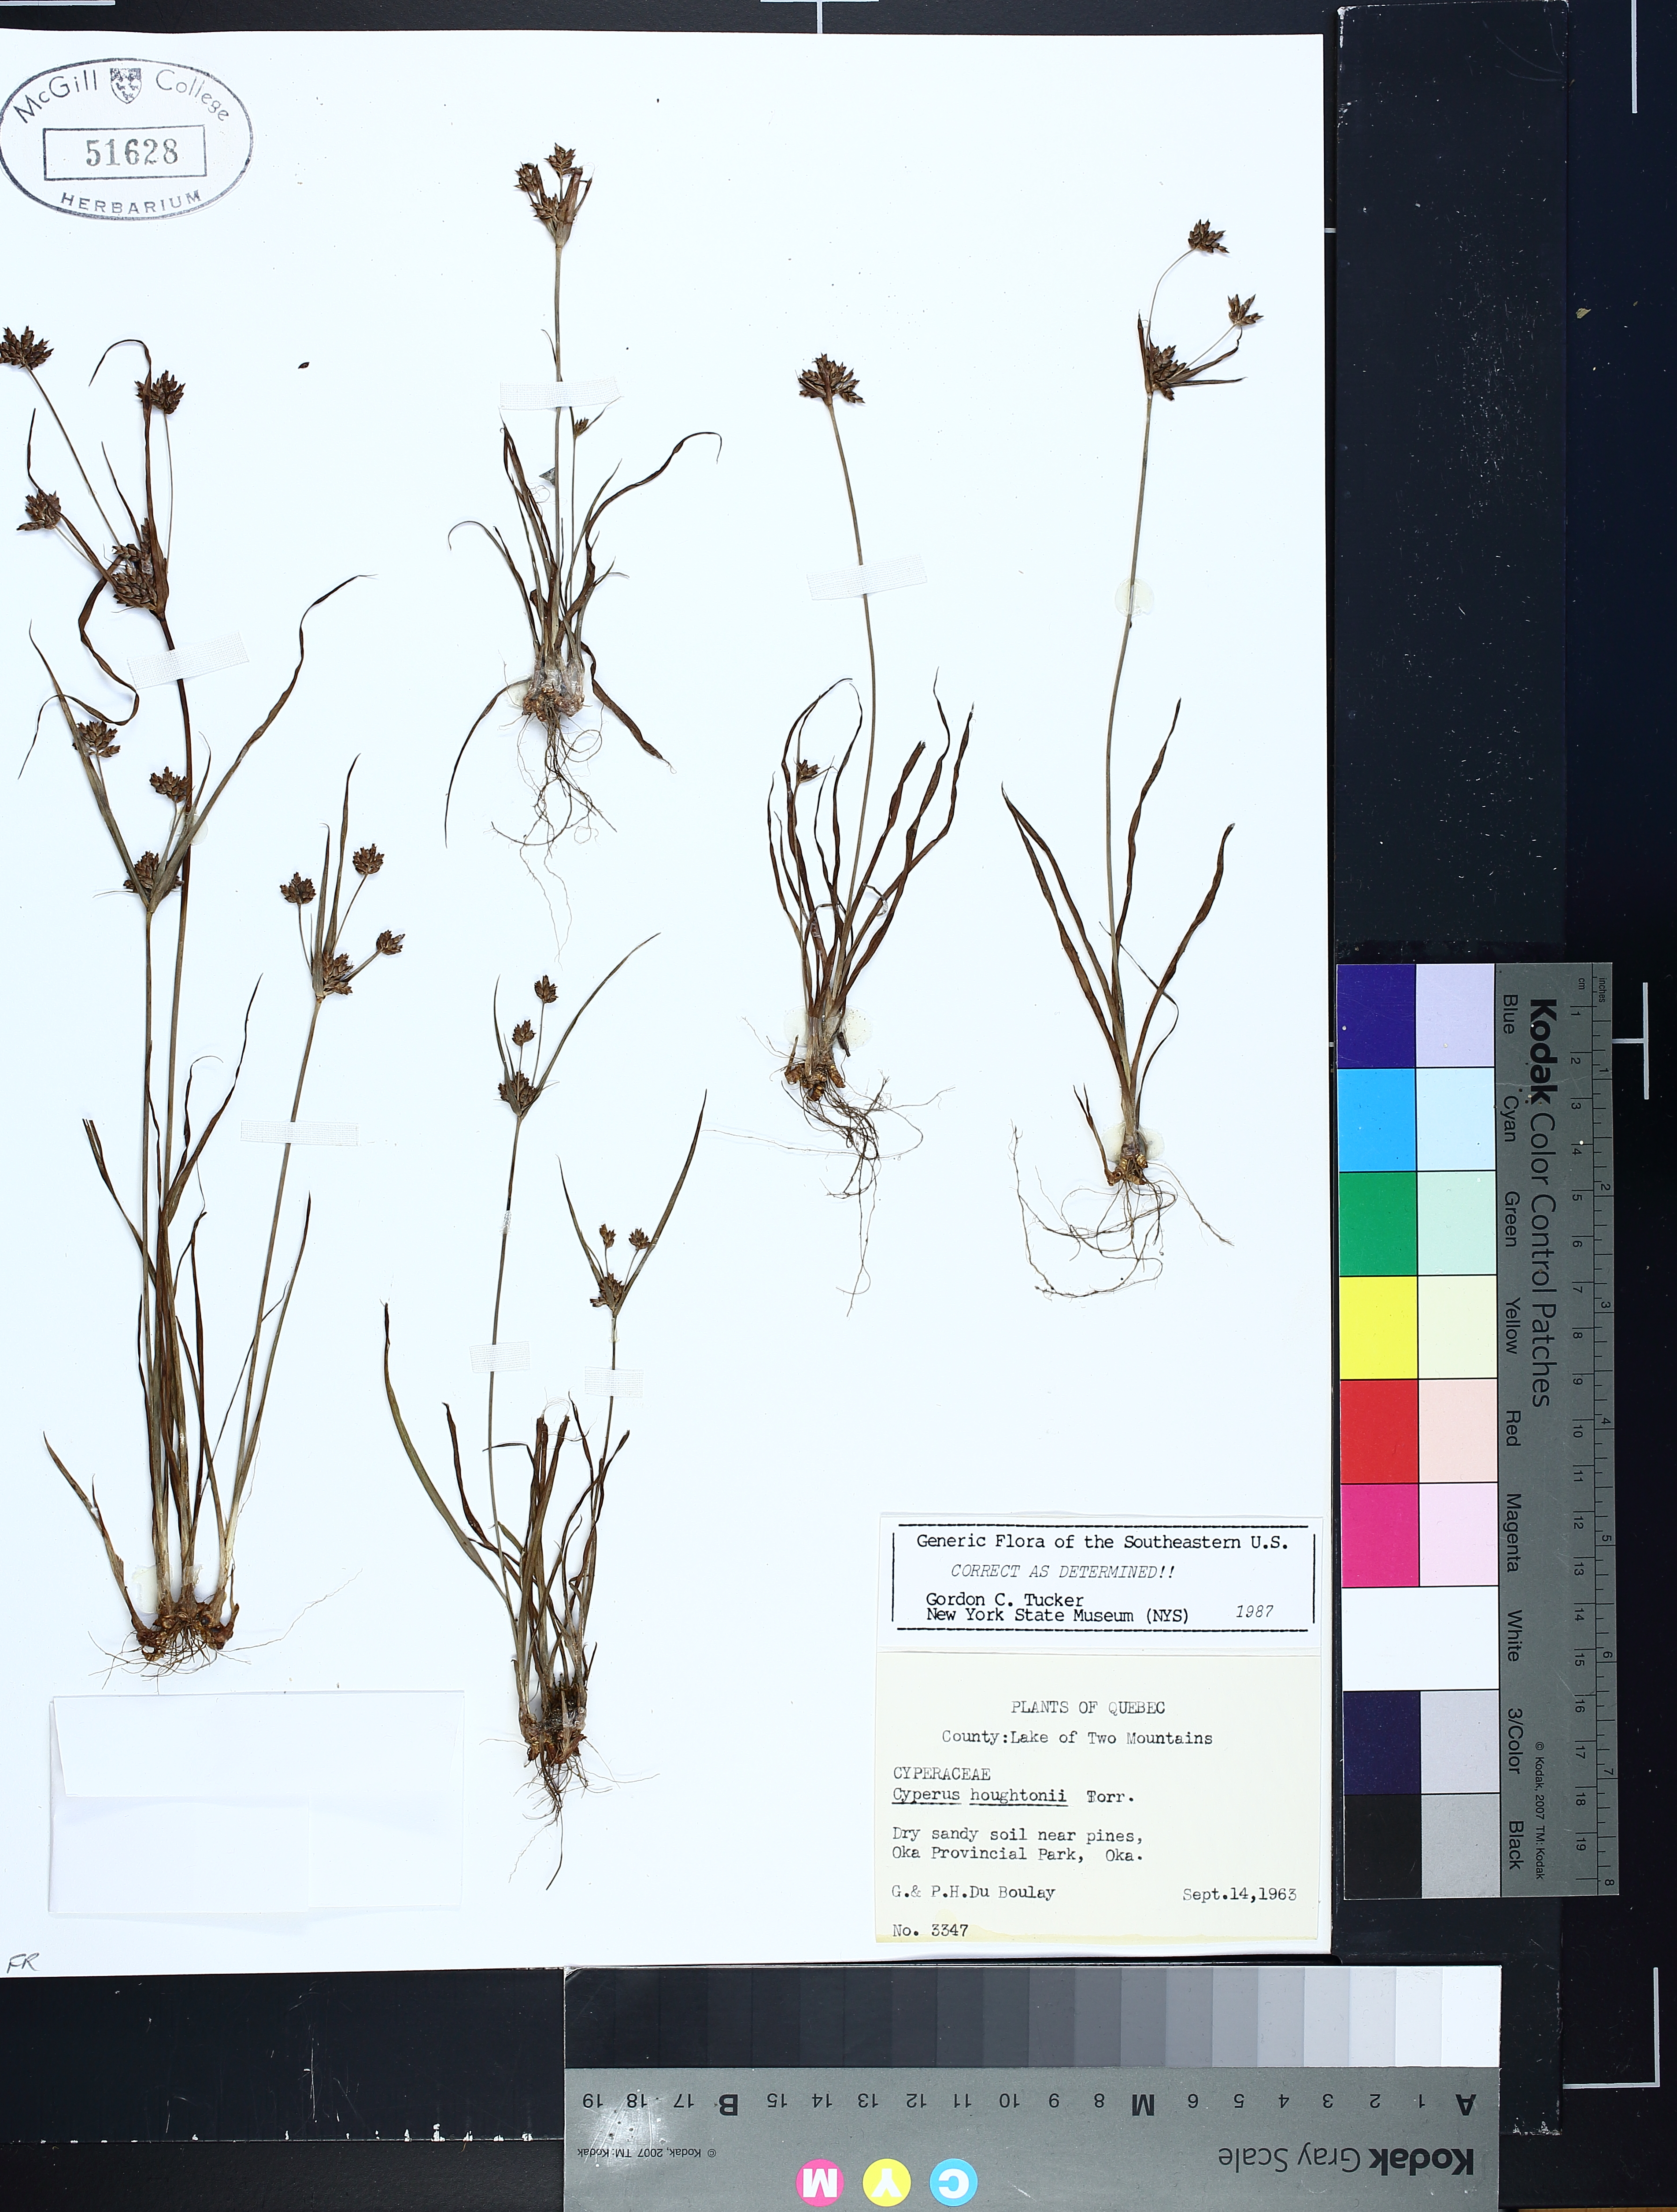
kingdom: Plantae
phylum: Tracheophyta
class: Liliopsida
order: Poales
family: Cyperaceae
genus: Cyperus
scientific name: Cyperus houghtonii
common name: Houghton's cyperus
